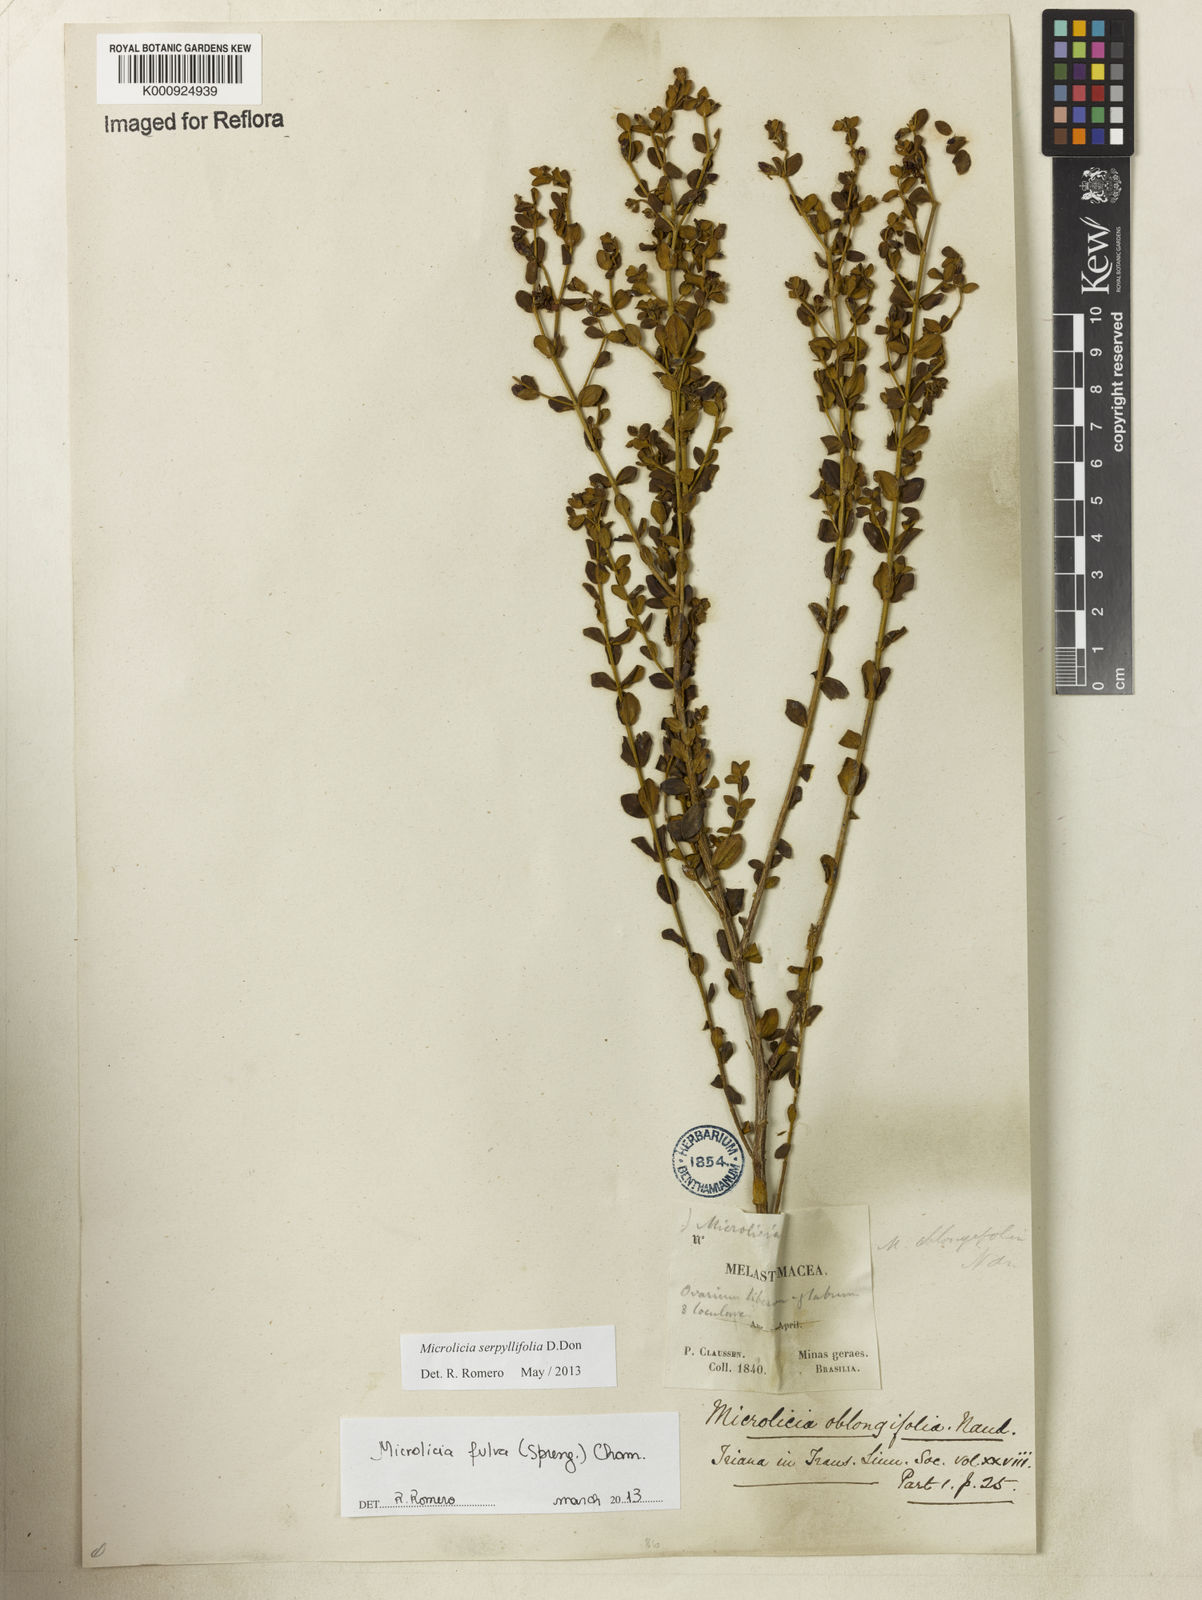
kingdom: Plantae
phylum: Tracheophyta
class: Magnoliopsida
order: Myrtales
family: Melastomataceae
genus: Microlicia
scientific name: Microlicia fulva
